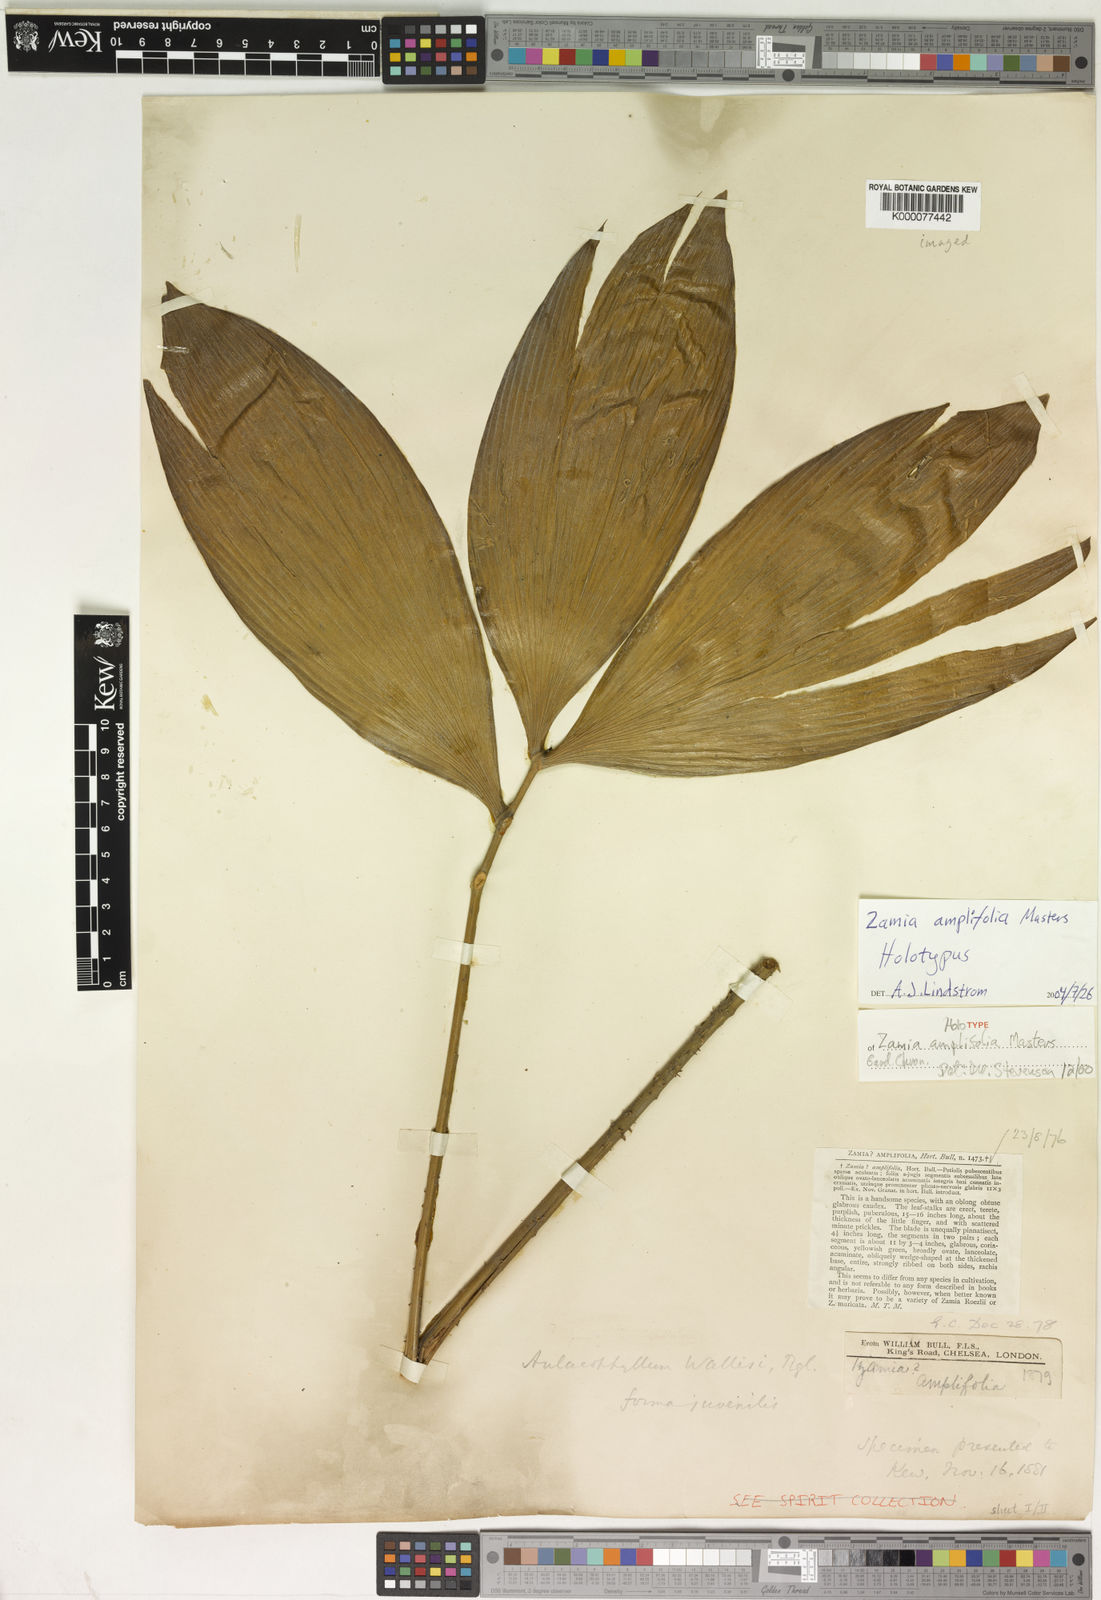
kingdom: Plantae
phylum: Tracheophyta
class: Cycadopsida
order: Cycadales
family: Zamiaceae
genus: Zamia
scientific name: Zamia amplifolia
